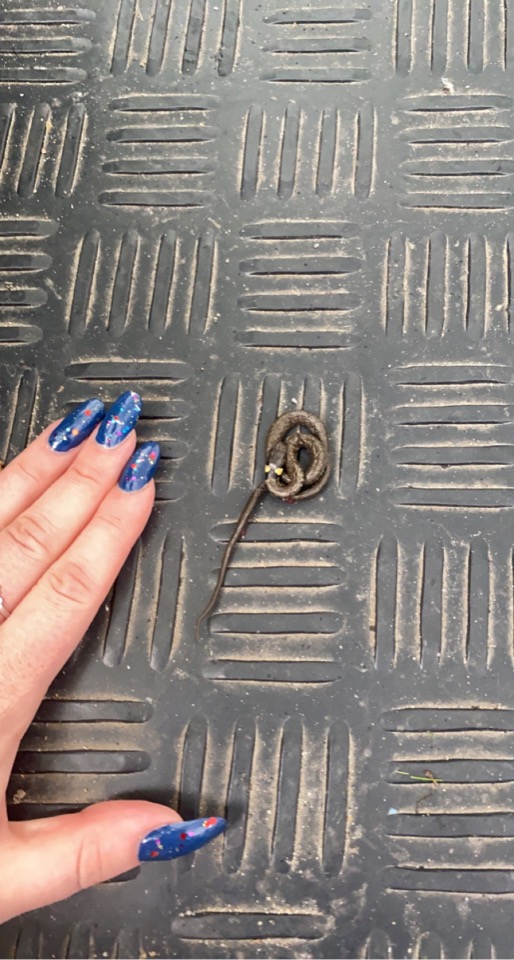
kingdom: Animalia
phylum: Chordata
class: Squamata
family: Colubridae
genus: Natrix
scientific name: Natrix natrix
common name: Snog
